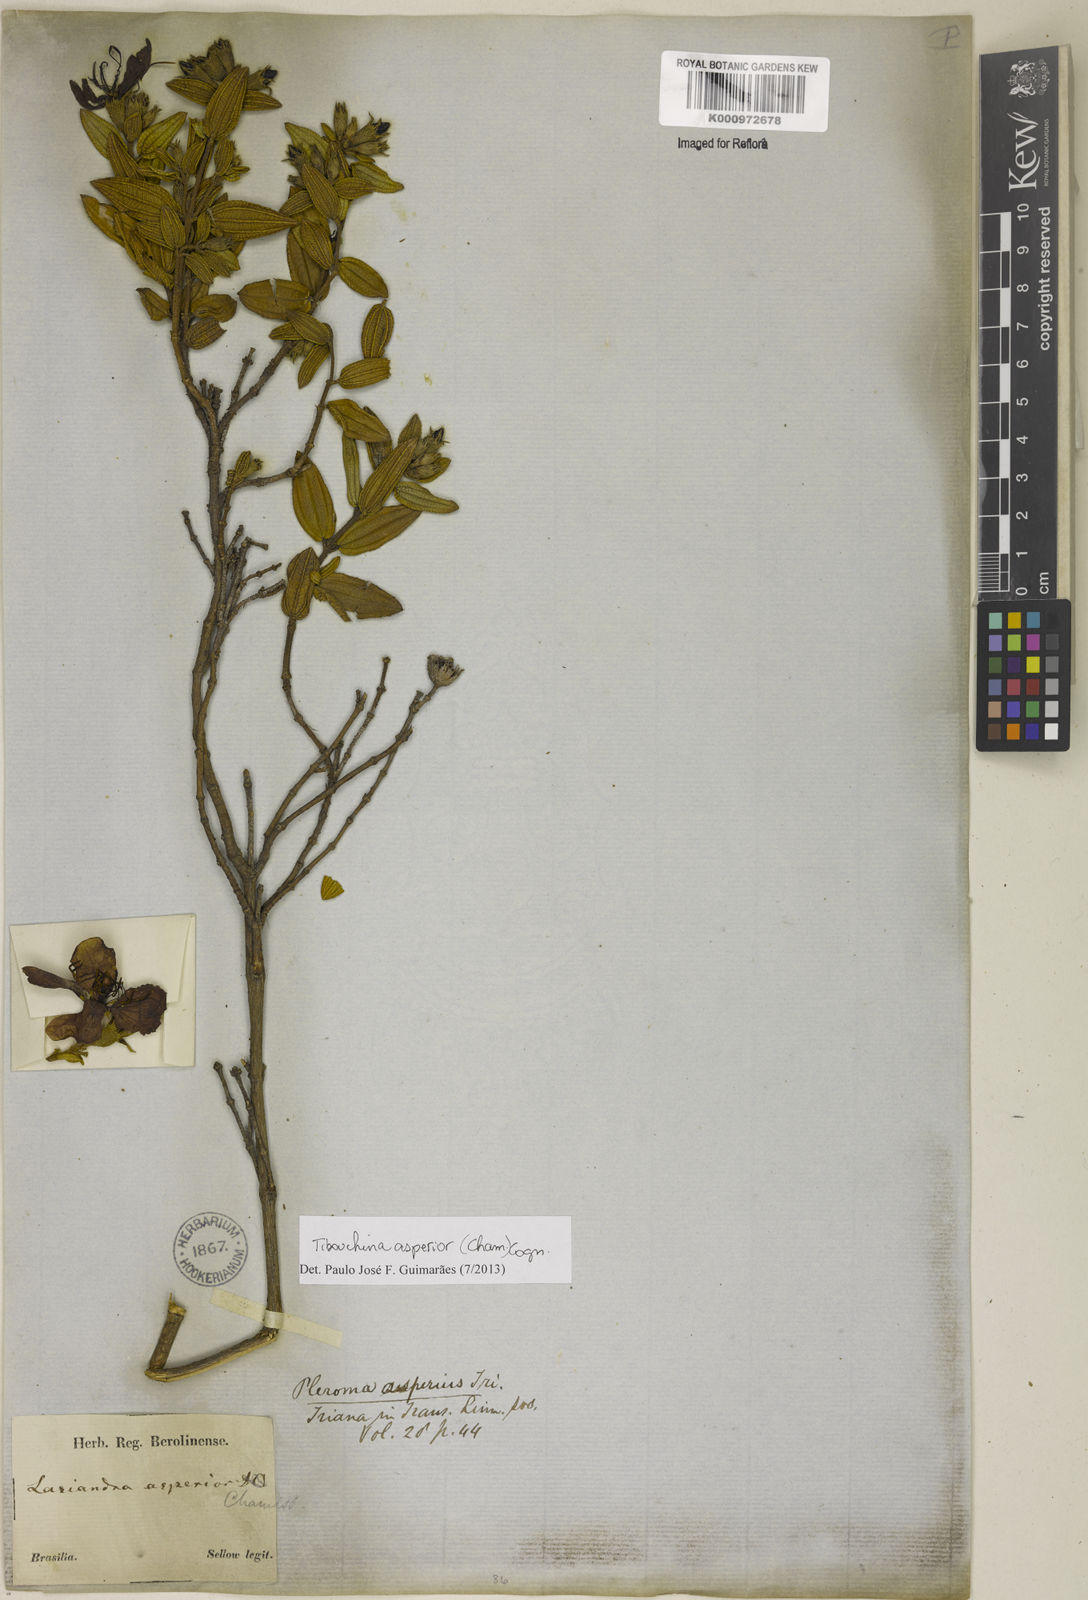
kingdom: Plantae
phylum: Tracheophyta
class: Magnoliopsida
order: Myrtales
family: Melastomataceae
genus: Pleroma
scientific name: Pleroma asperius
